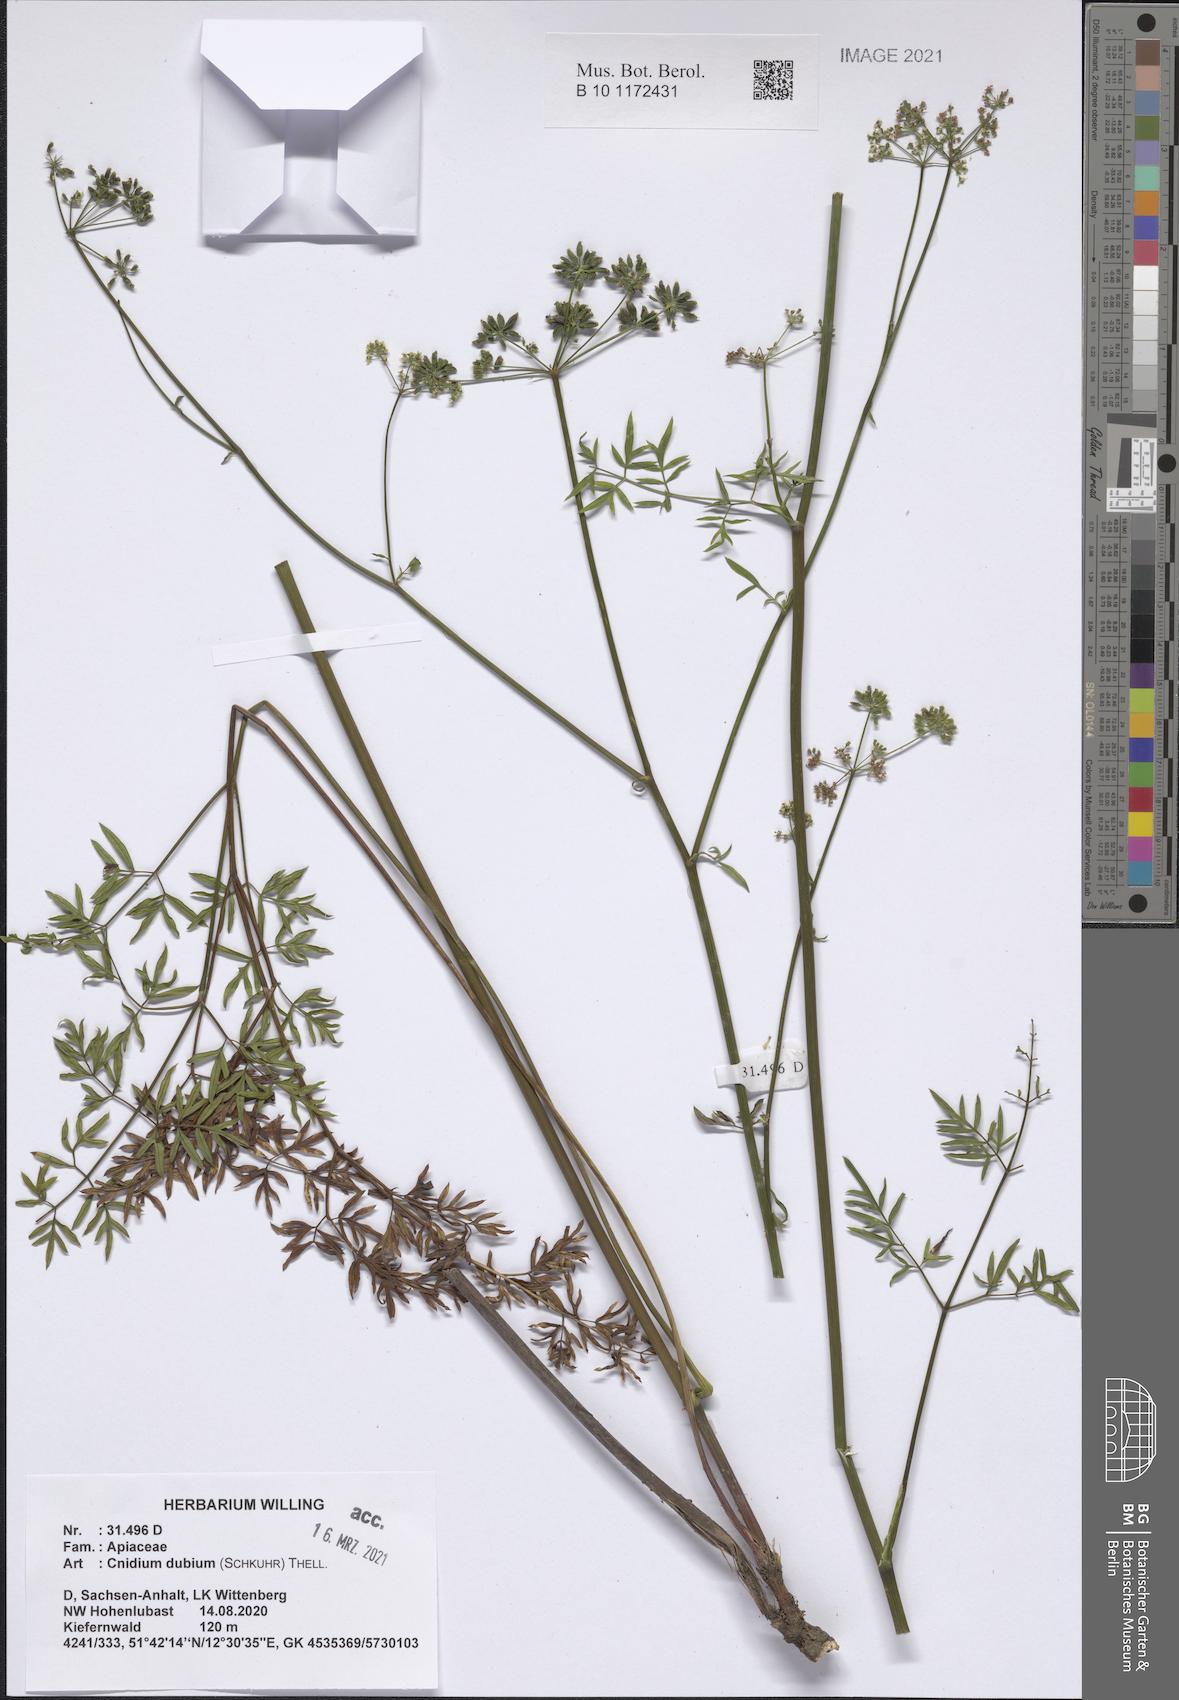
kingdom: Plantae
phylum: Tracheophyta
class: Magnoliopsida
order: Apiales
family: Apiaceae
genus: Kadenia
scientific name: Kadenia dubia
